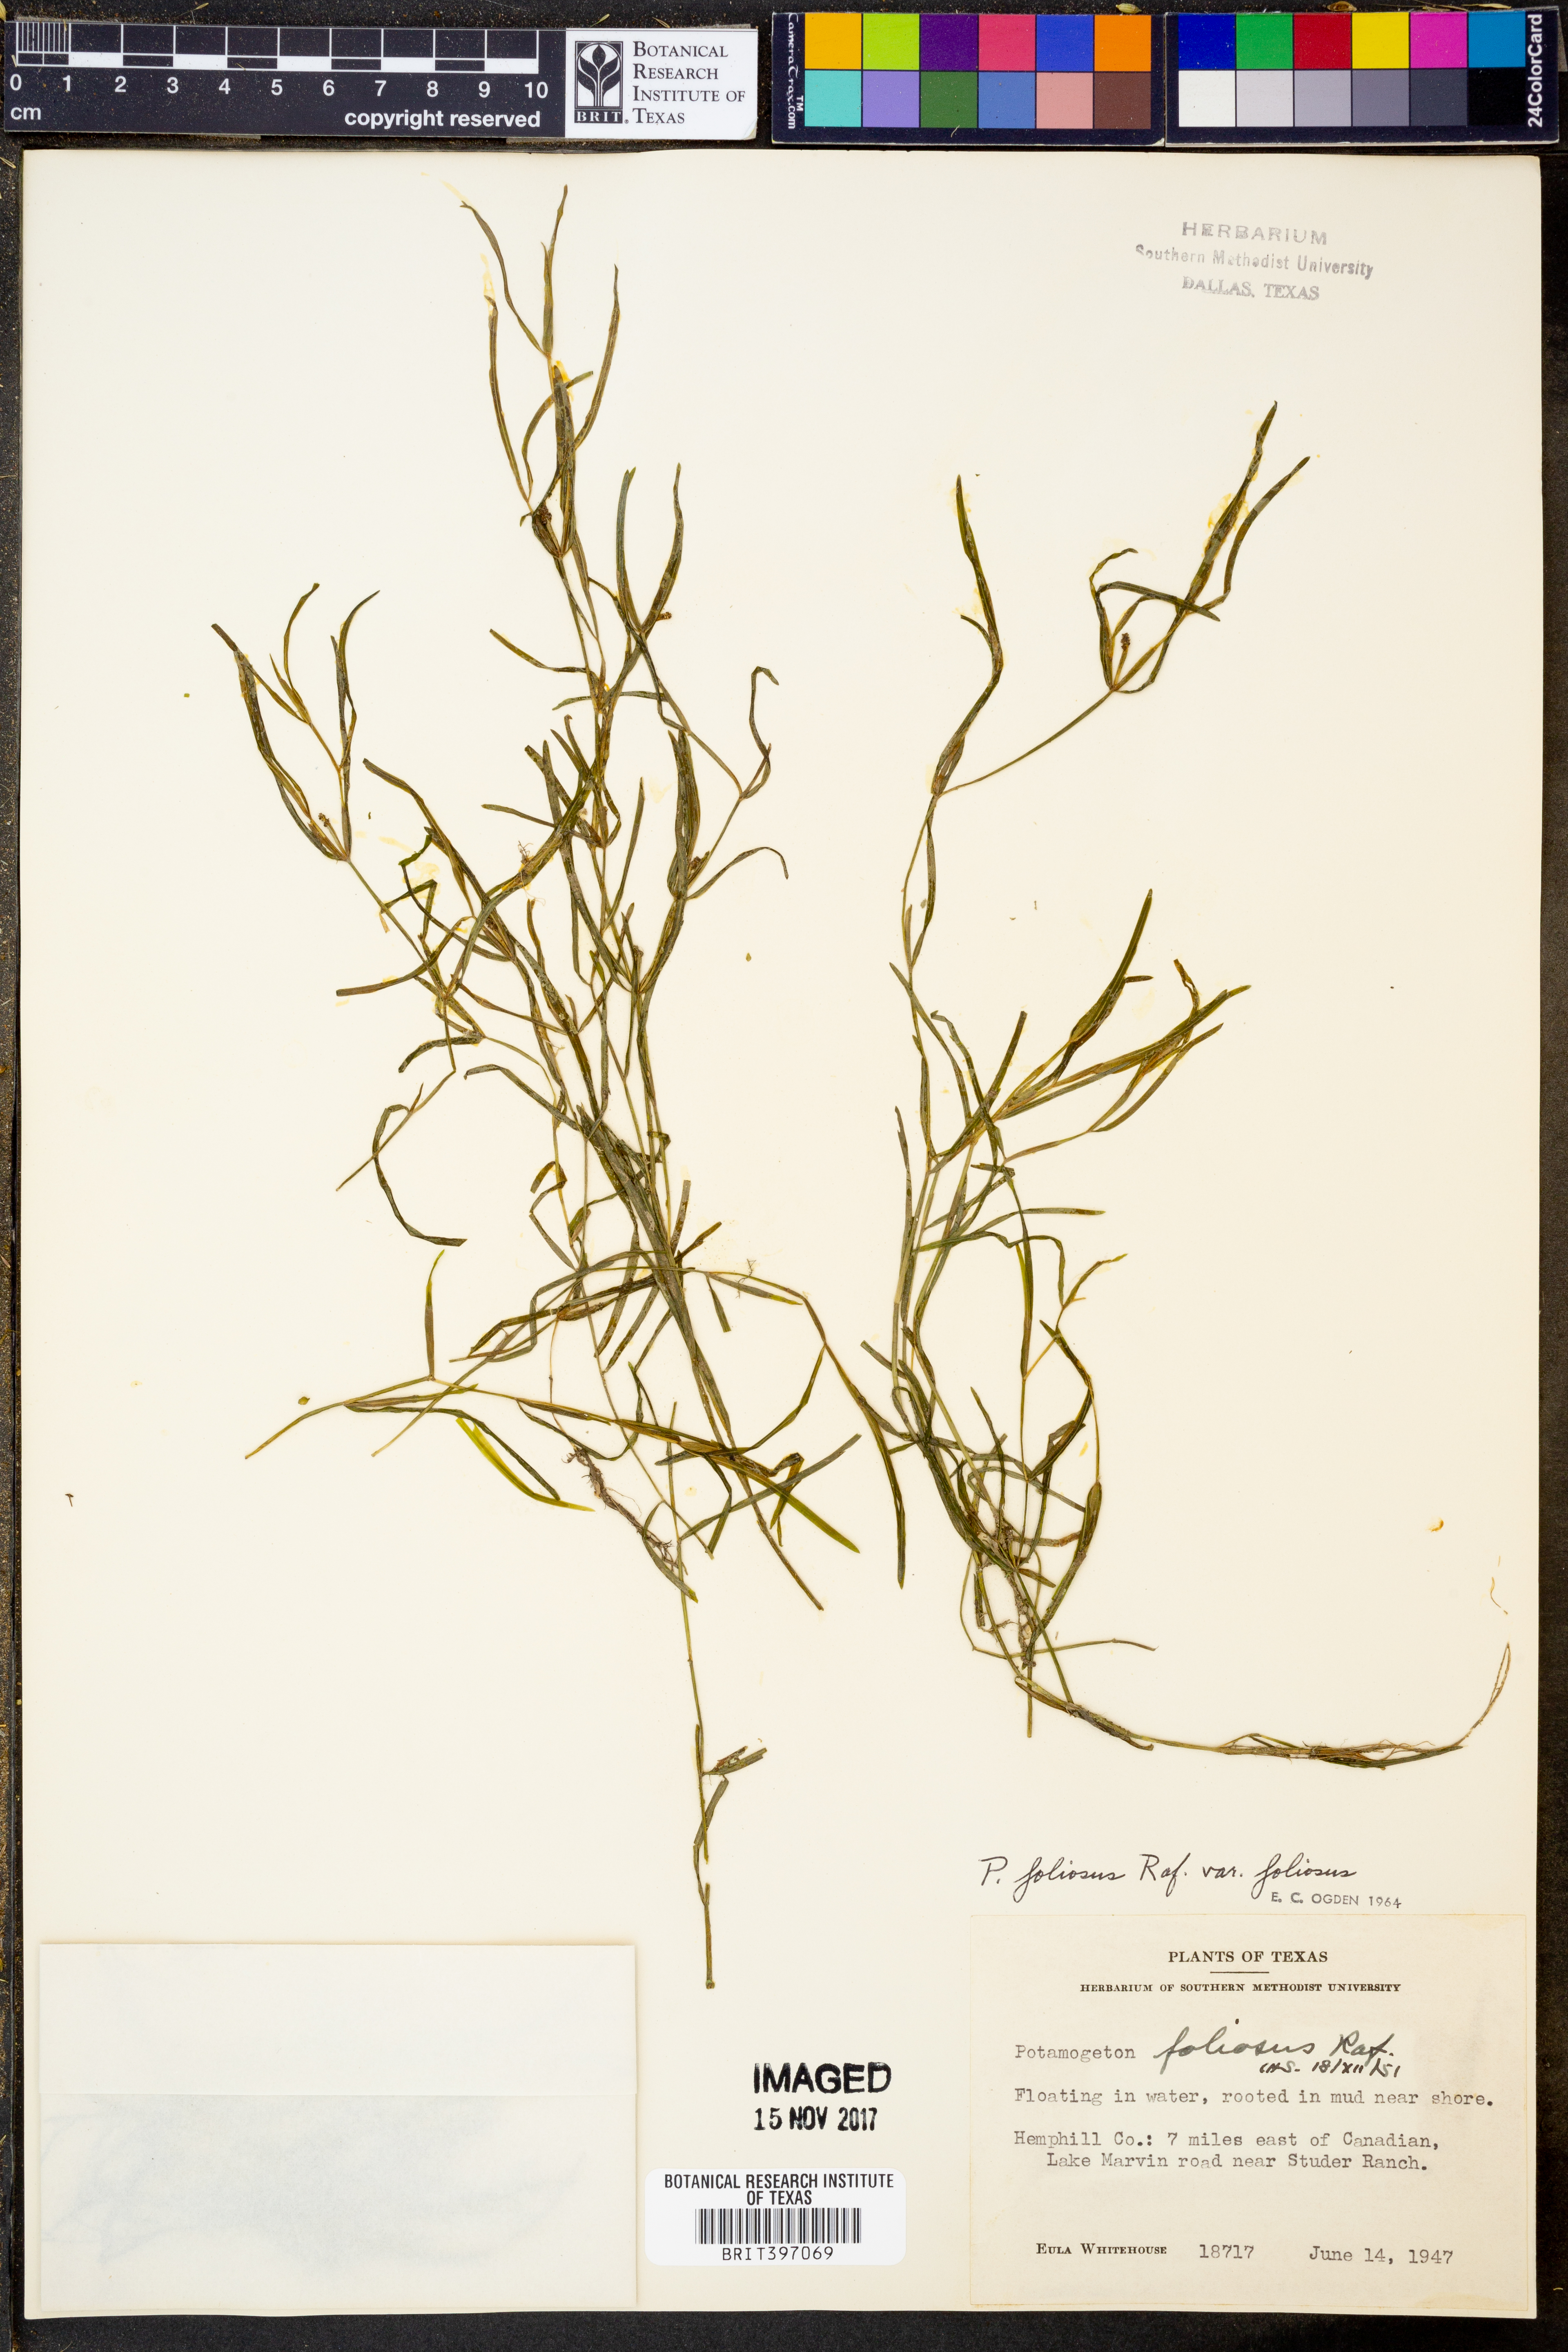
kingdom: Plantae
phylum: Tracheophyta
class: Liliopsida
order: Alismatales
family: Potamogetonaceae
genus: Potamogeton
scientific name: Potamogeton foliosus
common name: Leafy pondweed
